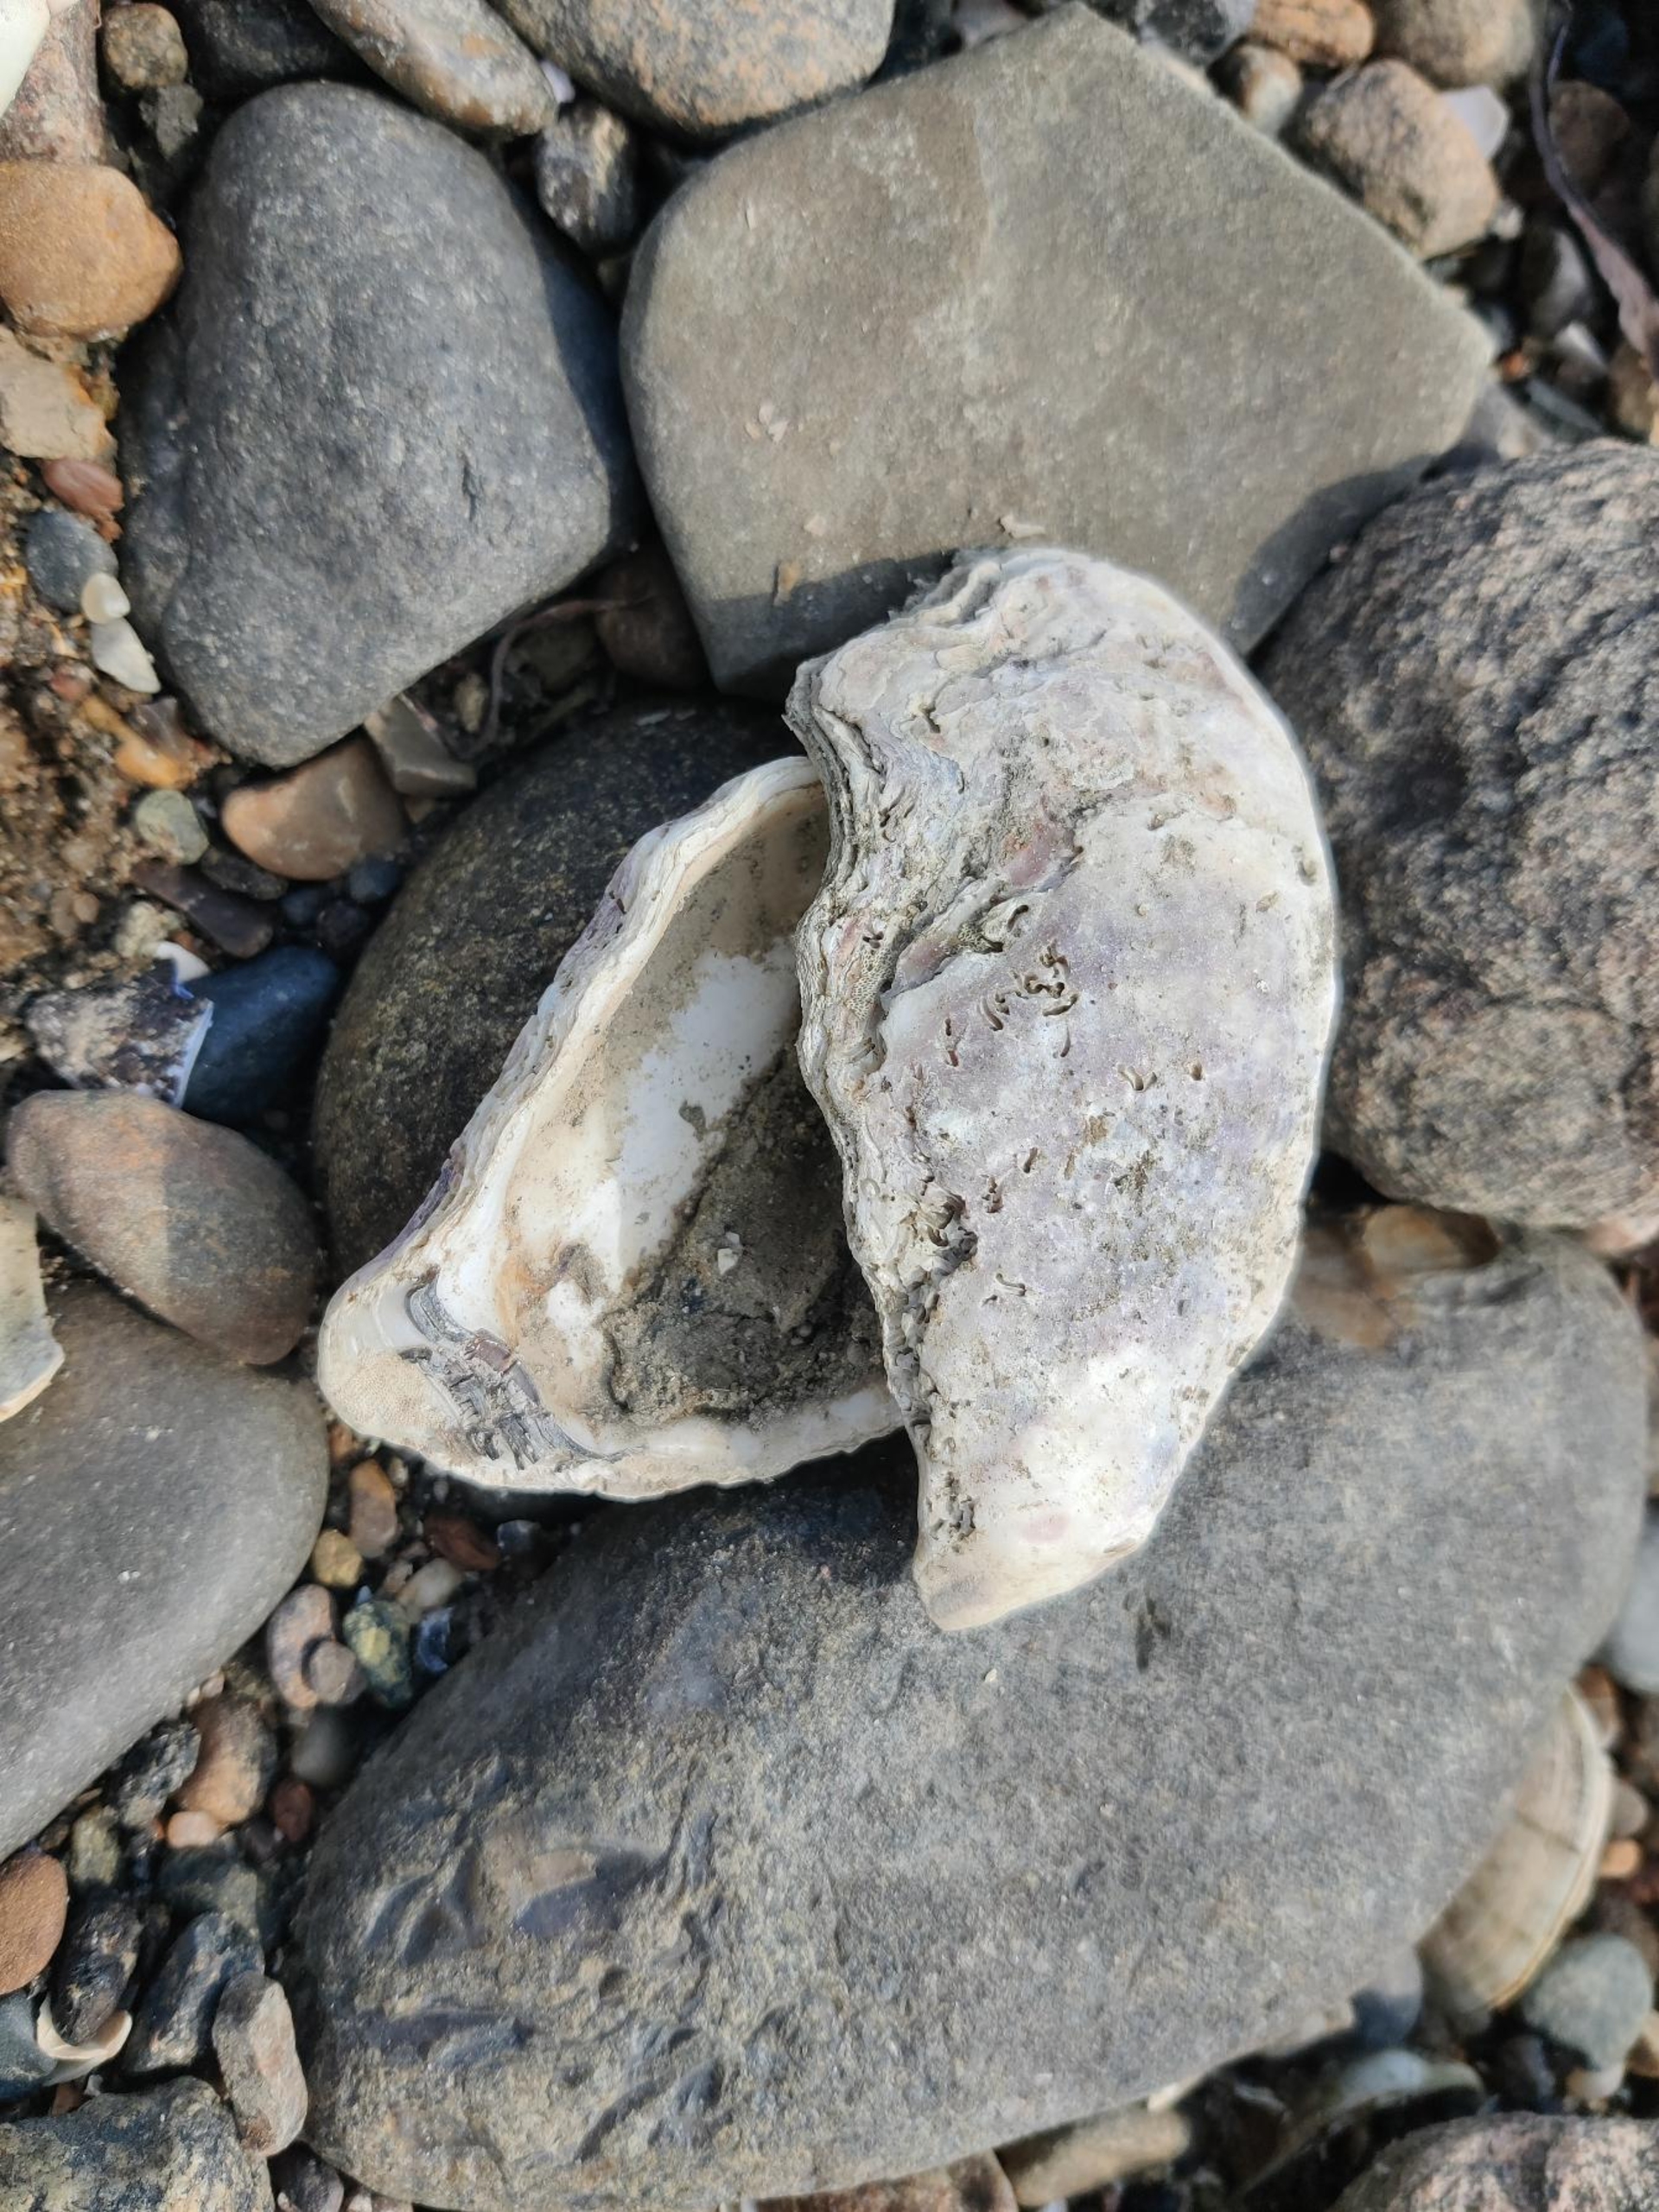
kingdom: Animalia
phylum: Mollusca
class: Bivalvia
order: Ostreida
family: Ostreidae
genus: Magallana
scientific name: Magallana gigas
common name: Stillehavsøsters
